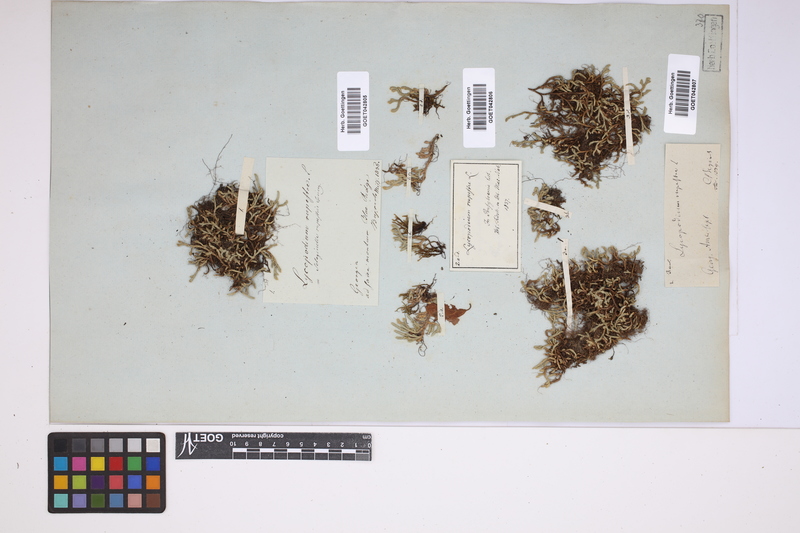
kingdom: Plantae
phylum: Tracheophyta
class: Lycopodiopsida
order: Selaginellales
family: Selaginellaceae
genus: Selaginella
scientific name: Selaginella rupestris
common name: Dwarf spikemoss
